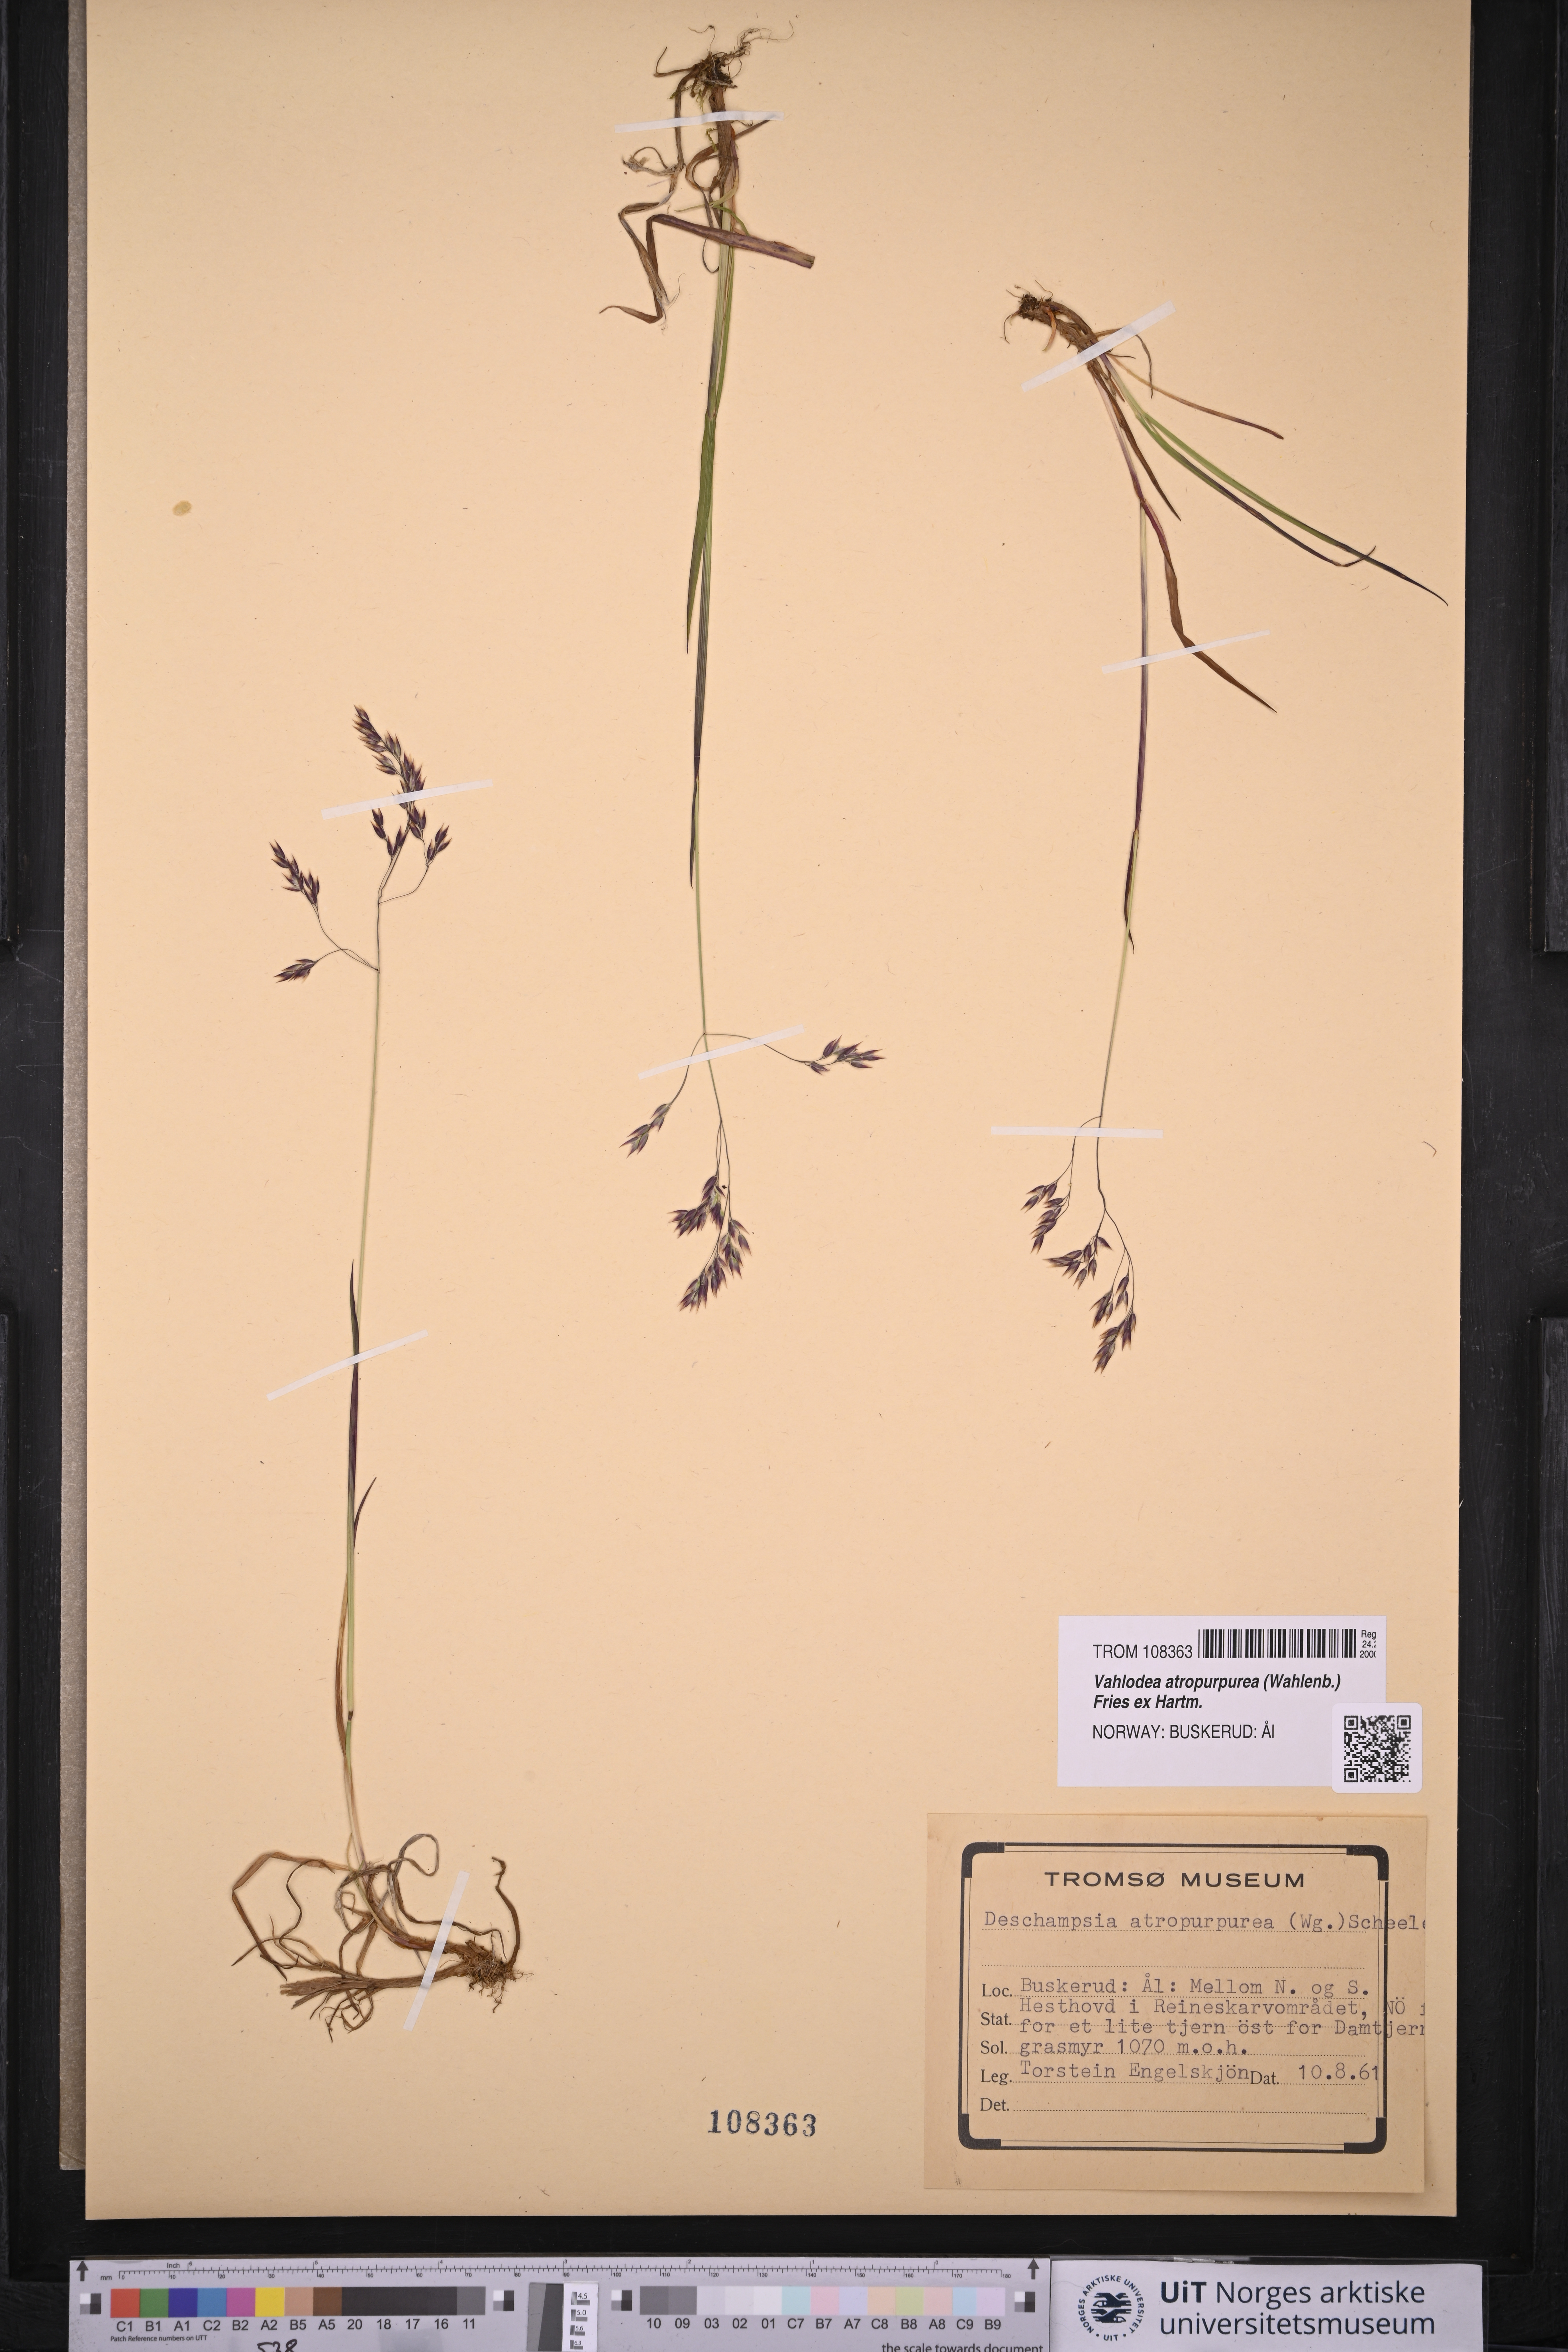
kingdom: Plantae
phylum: Tracheophyta
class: Liliopsida
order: Poales
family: Poaceae
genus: Vahlodea
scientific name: Vahlodea atropurpurea
